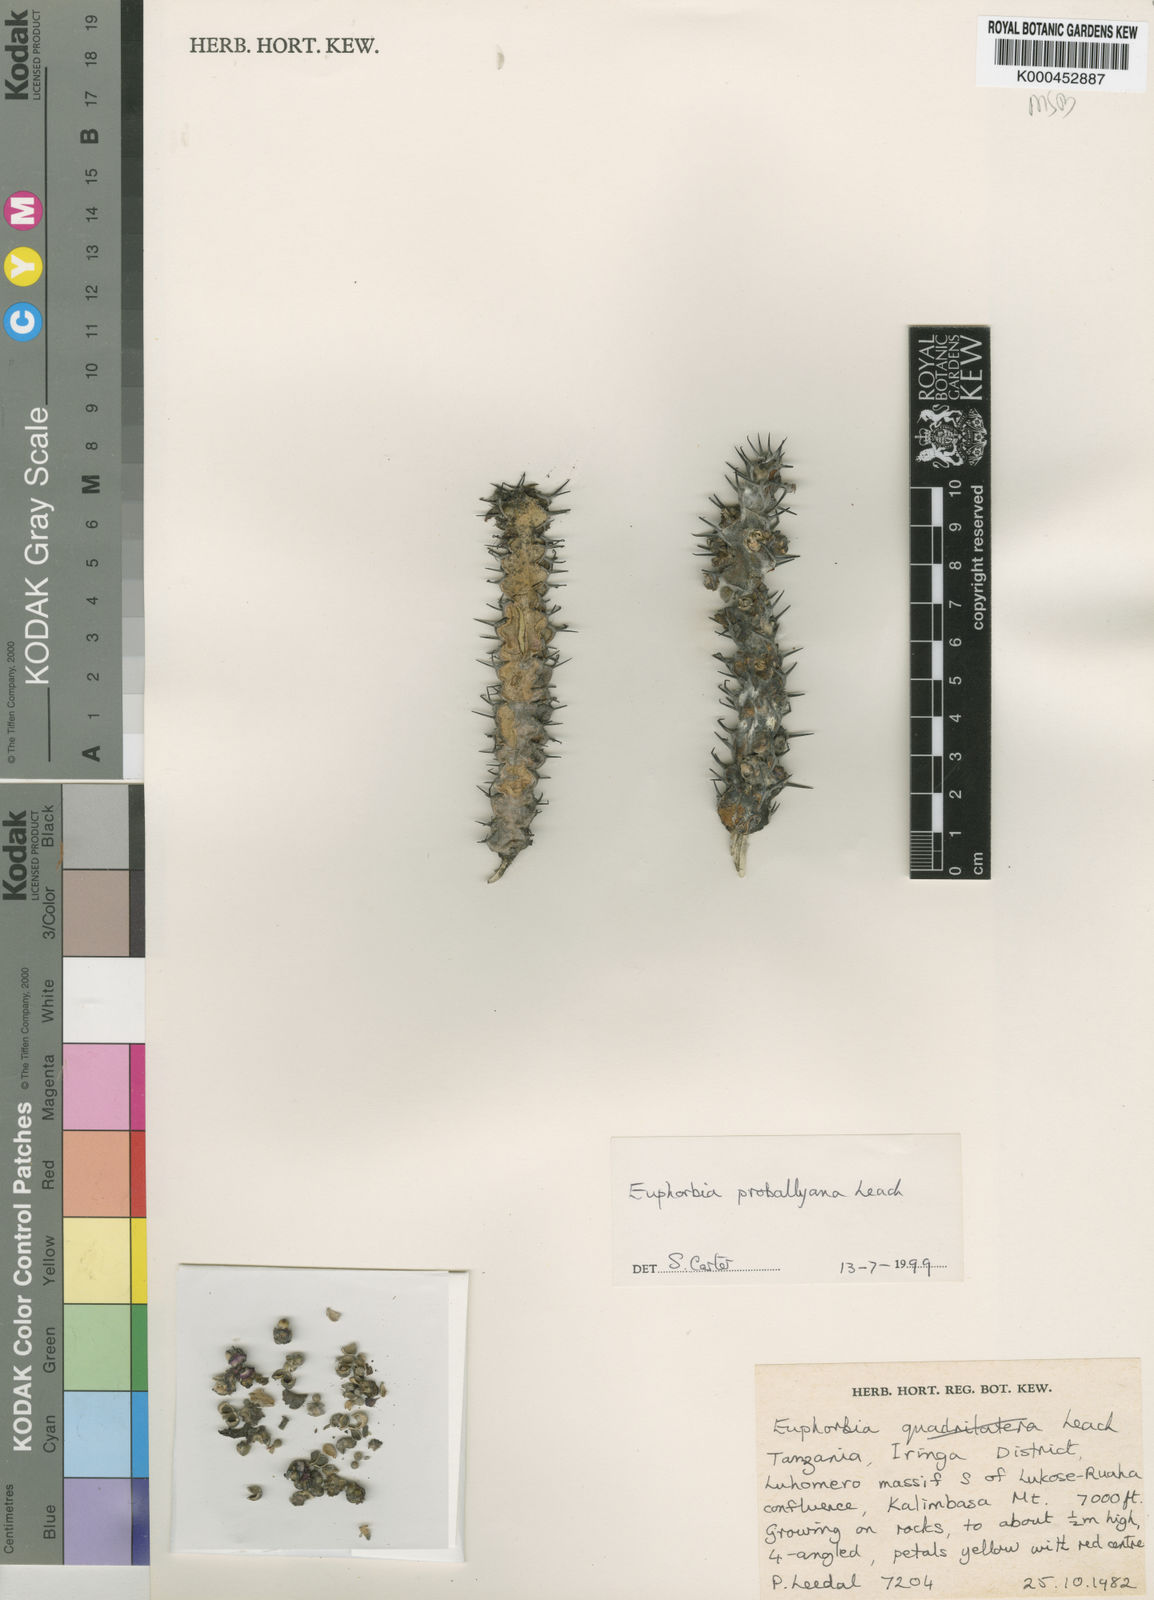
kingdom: Plantae
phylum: Tracheophyta
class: Magnoliopsida
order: Malpighiales
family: Euphorbiaceae
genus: Euphorbia
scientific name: Euphorbia
